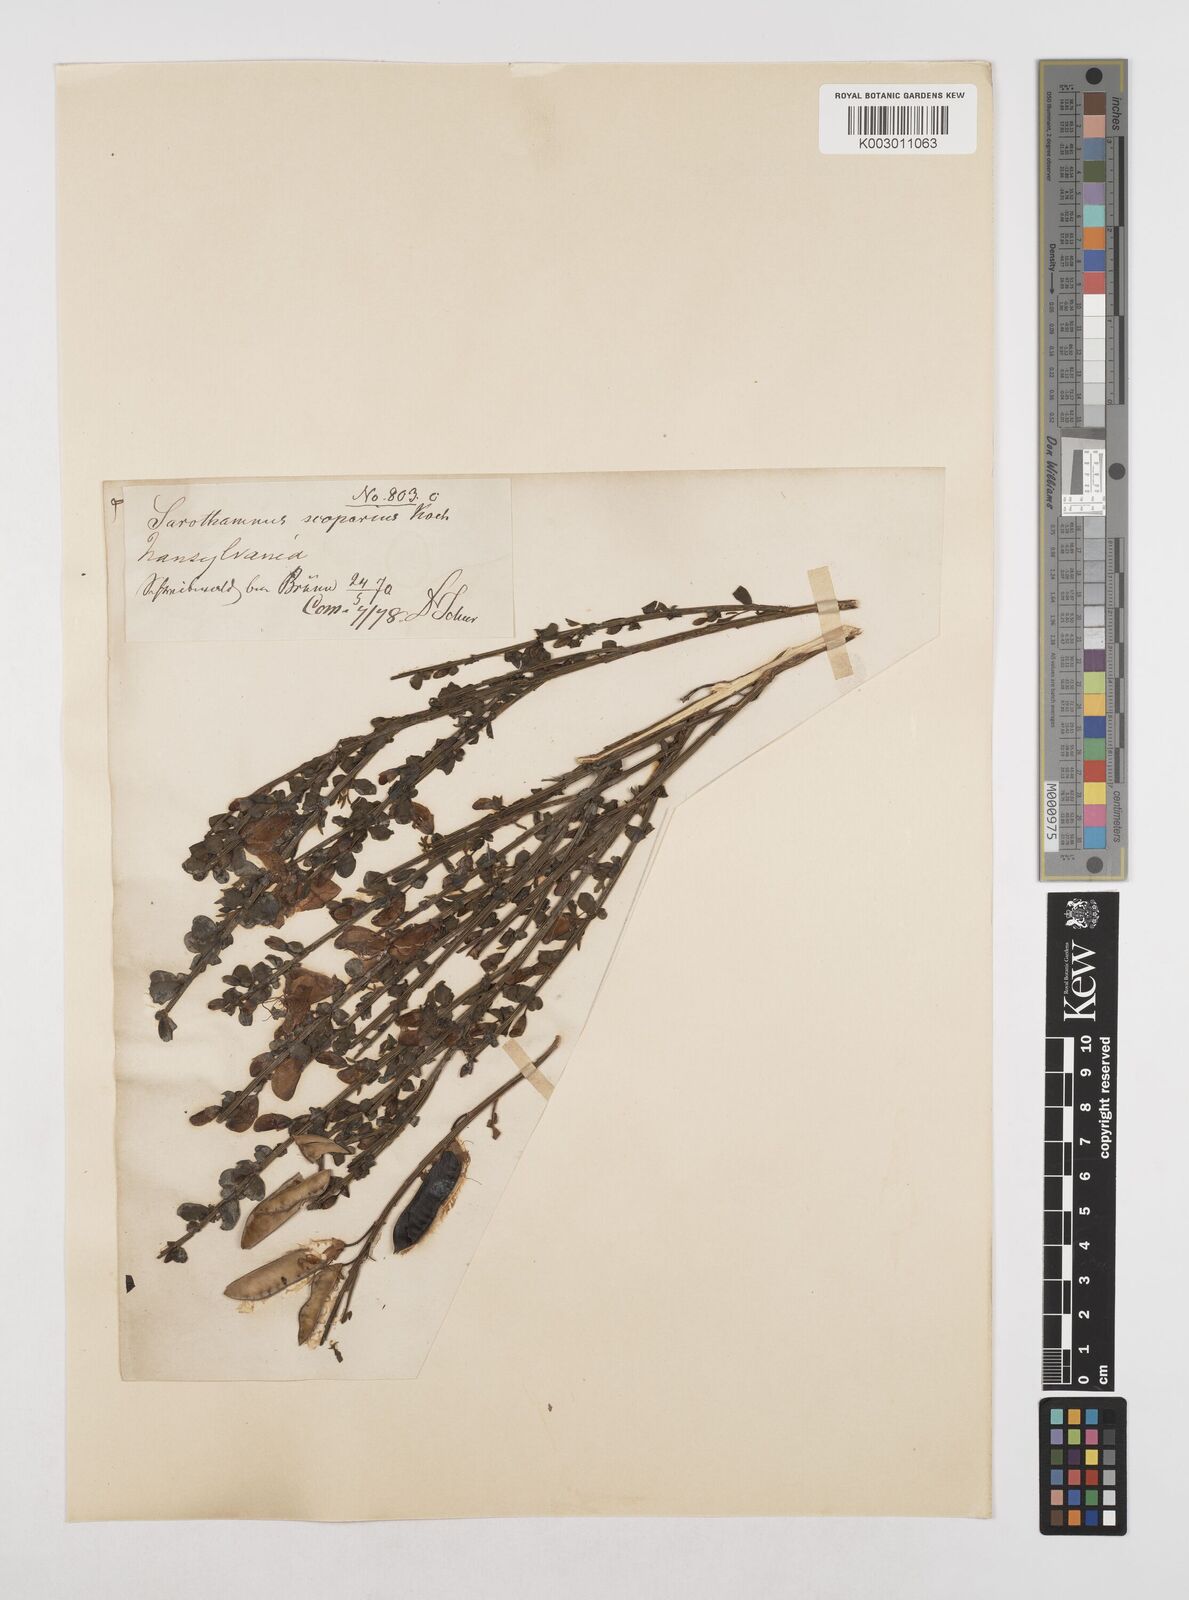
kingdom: Plantae
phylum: Tracheophyta
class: Magnoliopsida
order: Fabales
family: Fabaceae
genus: Cytisus
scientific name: Cytisus scoparius
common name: Scotch broom
